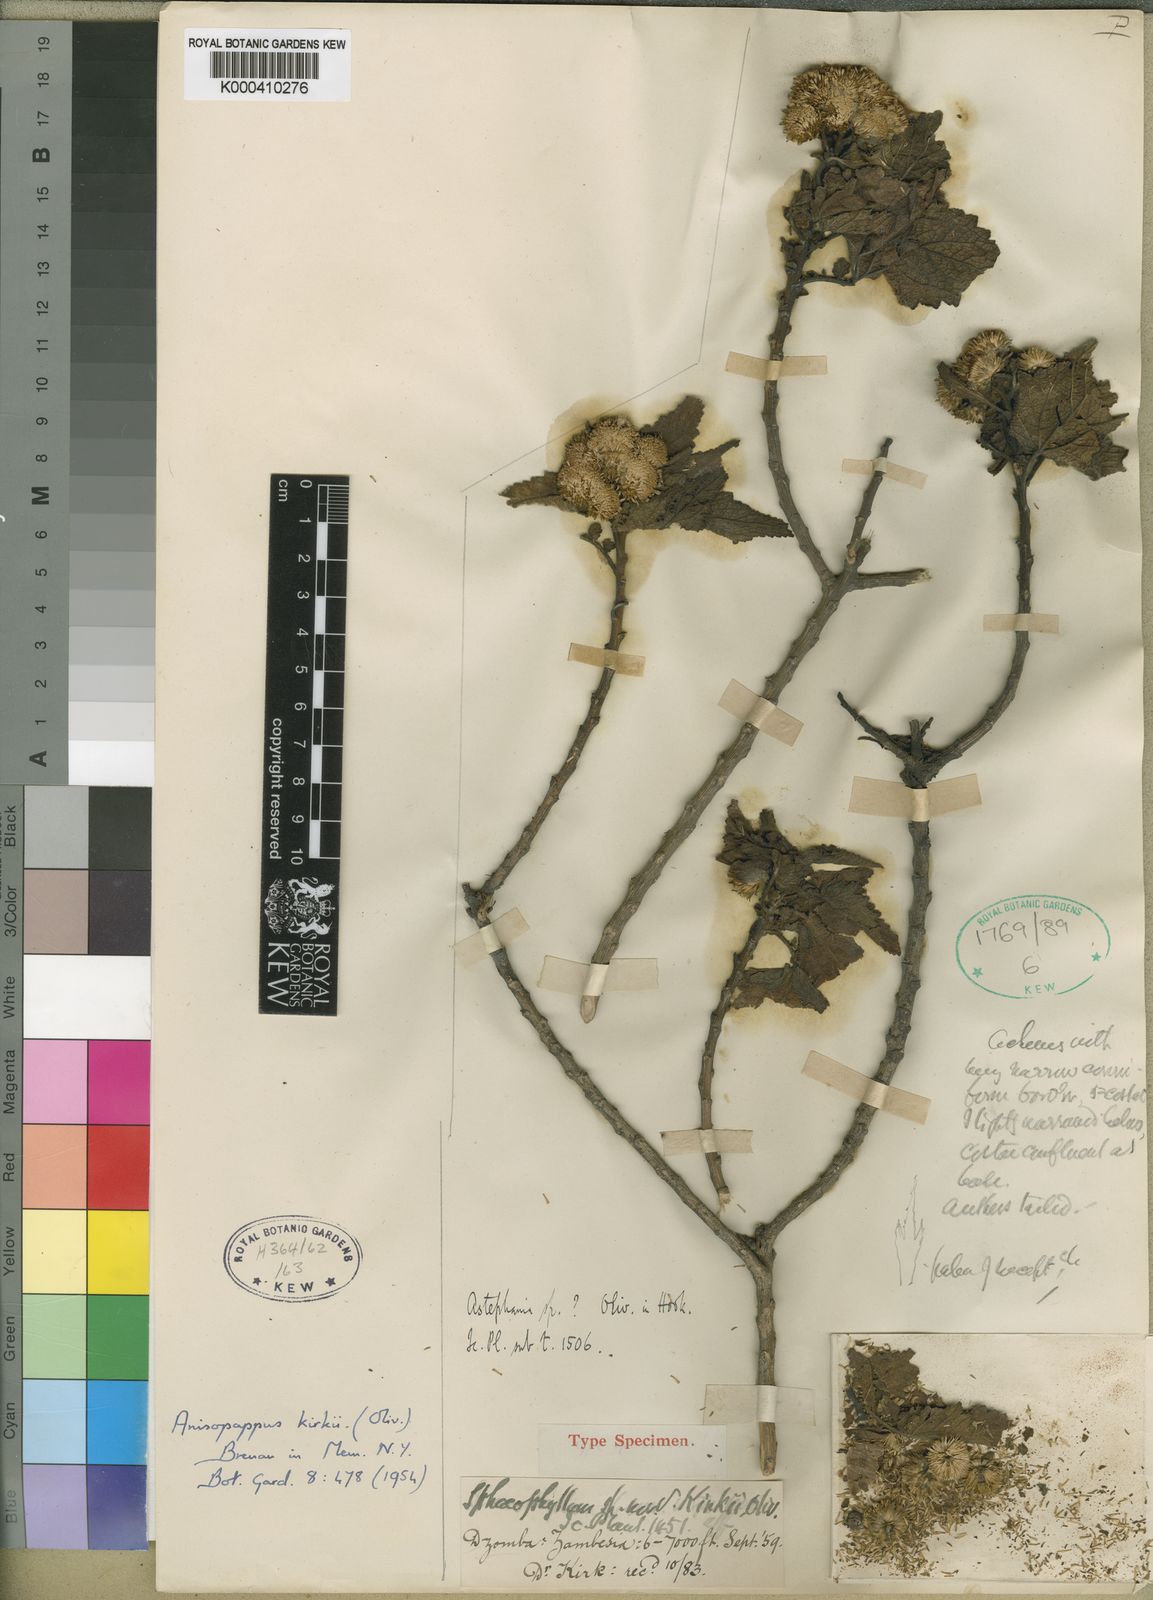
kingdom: Plantae
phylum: Tracheophyta
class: Magnoliopsida
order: Asterales
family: Asteraceae
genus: Anisopappus
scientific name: Anisopappus kirkii
